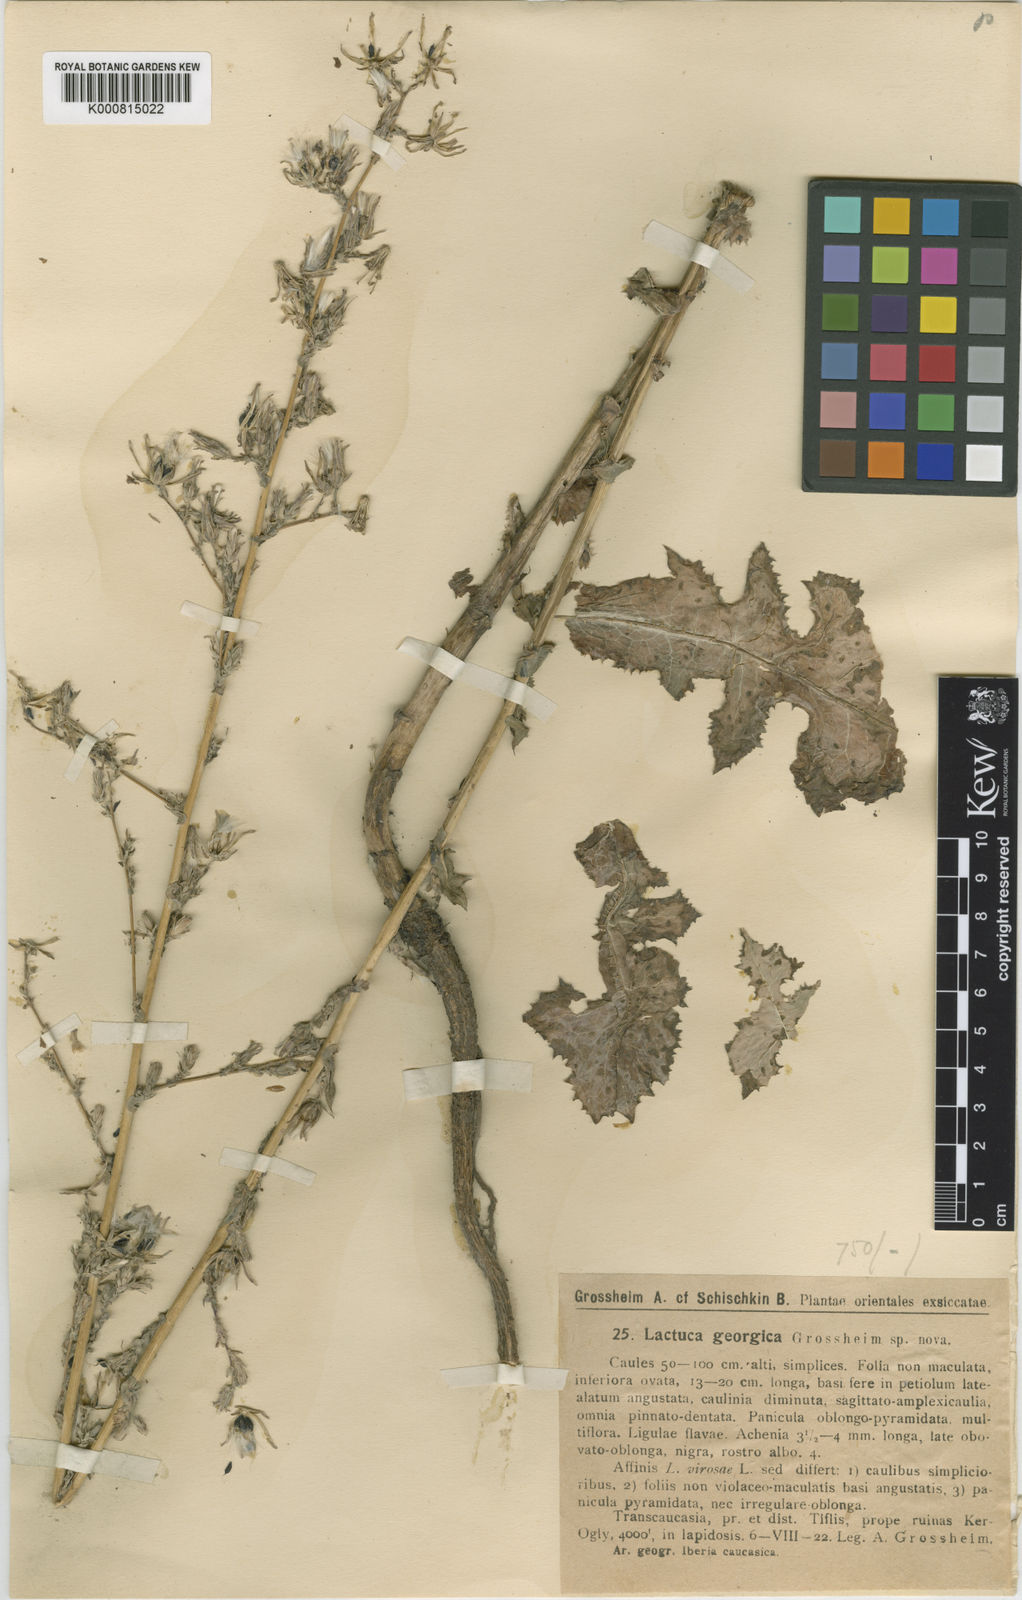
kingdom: Plantae
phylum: Tracheophyta
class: Magnoliopsida
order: Asterales
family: Asteraceae
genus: Lactuca
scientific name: Lactuca georgica
